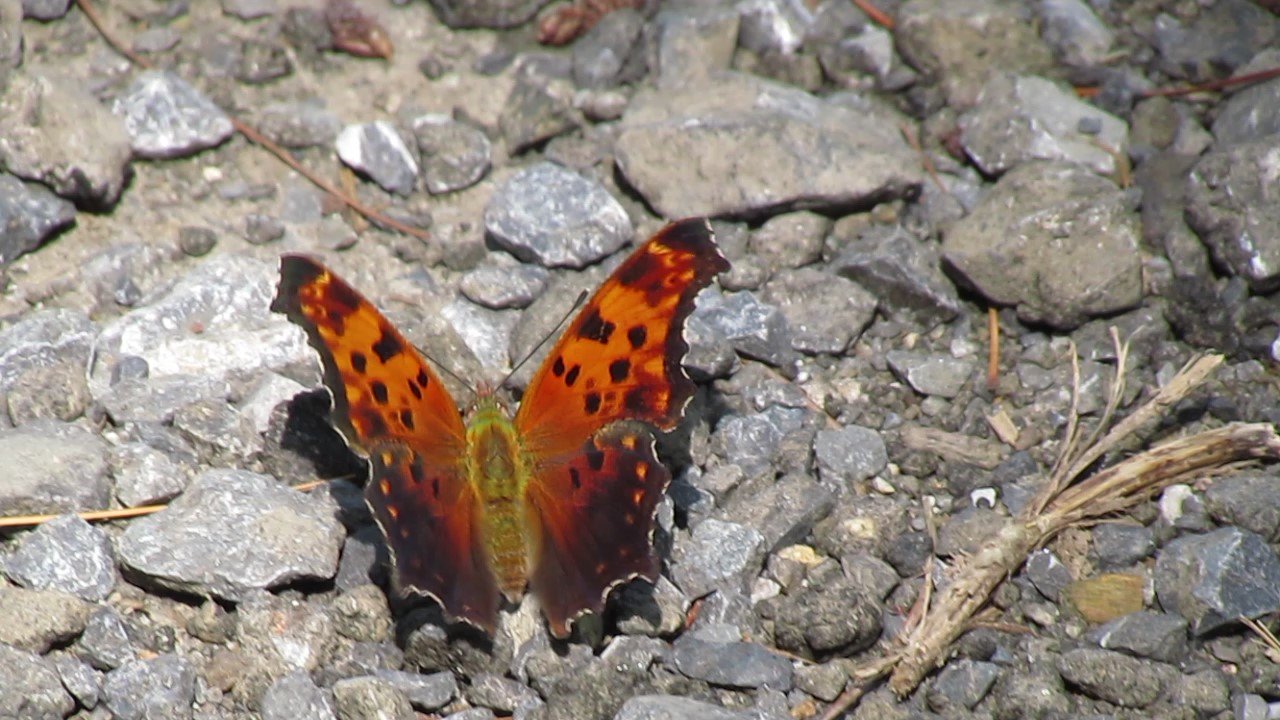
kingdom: Animalia
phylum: Arthropoda
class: Insecta
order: Lepidoptera
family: Nymphalidae
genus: Polygonia
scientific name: Polygonia comma
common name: Eastern Comma
